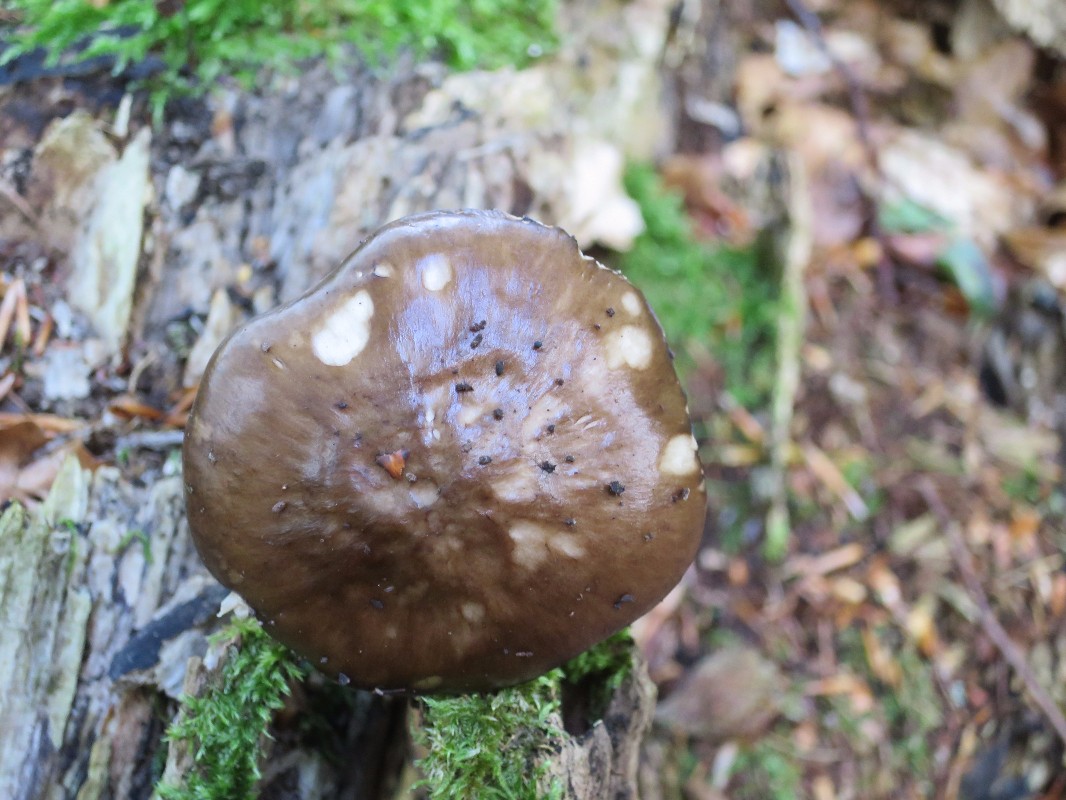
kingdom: Fungi
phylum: Basidiomycota
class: Agaricomycetes
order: Agaricales
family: Pluteaceae
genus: Pluteus
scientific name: Pluteus cervinus
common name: sodfarvet skærmhat
